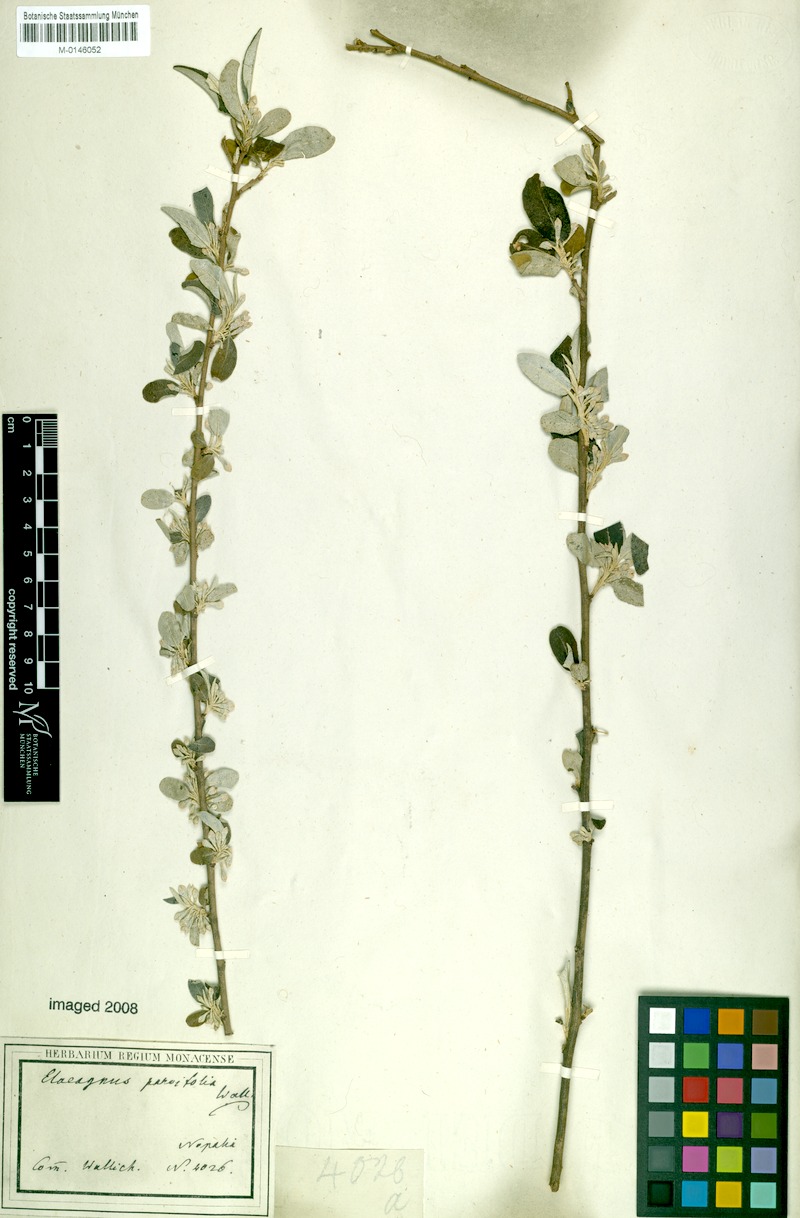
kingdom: Plantae
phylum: Tracheophyta
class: Magnoliopsida
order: Rosales
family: Elaeagnaceae
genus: Elaeagnus
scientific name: Elaeagnus umbellata
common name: Autumn olive
